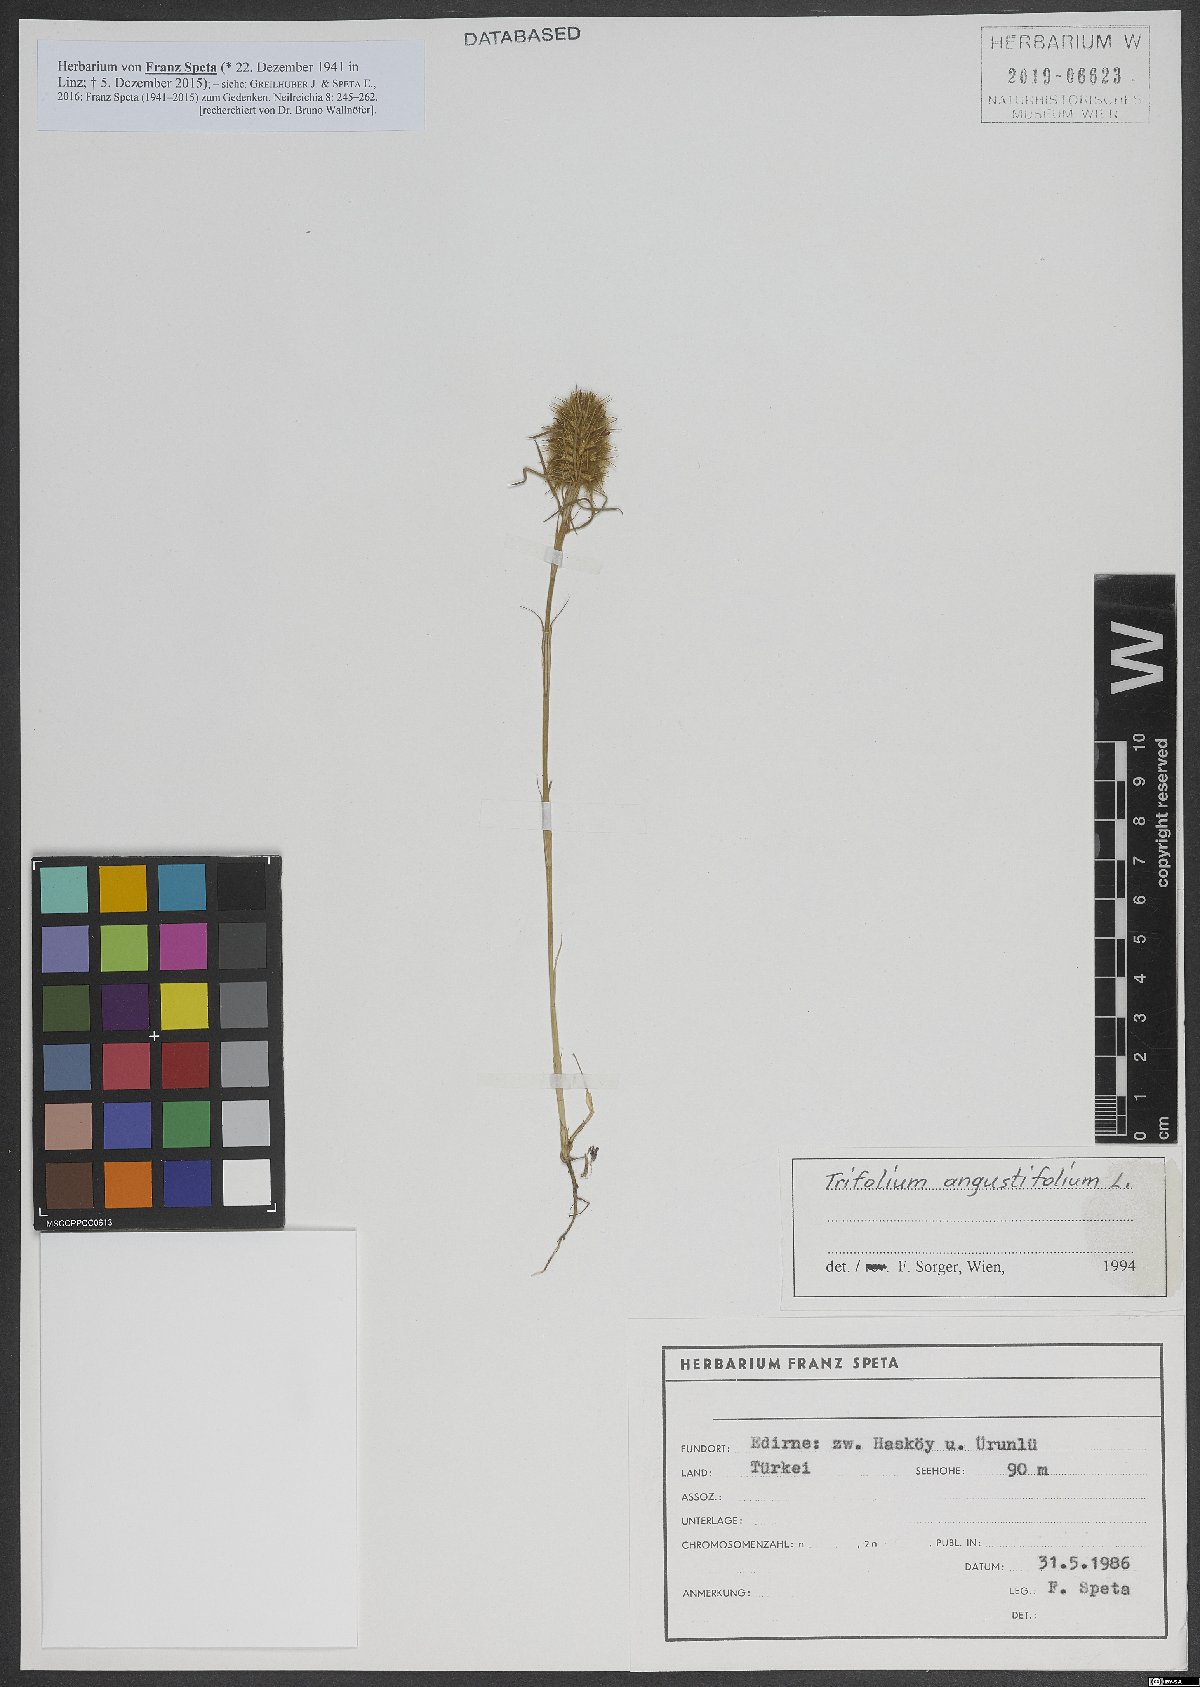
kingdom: Plantae
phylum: Tracheophyta
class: Magnoliopsida
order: Fabales
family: Fabaceae
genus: Trifolium
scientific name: Trifolium angustifolium
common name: Narrow clover
